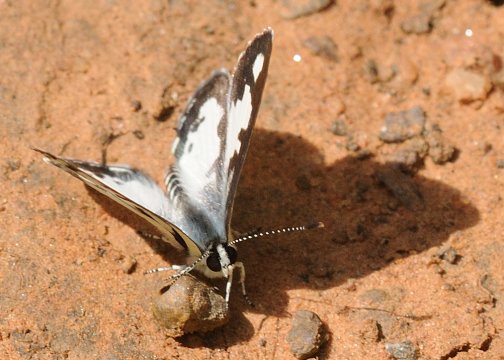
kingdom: Animalia
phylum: Arthropoda
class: Insecta
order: Lepidoptera
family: Lycaenidae
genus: Castalius
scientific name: Castalius calice
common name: White Pie
